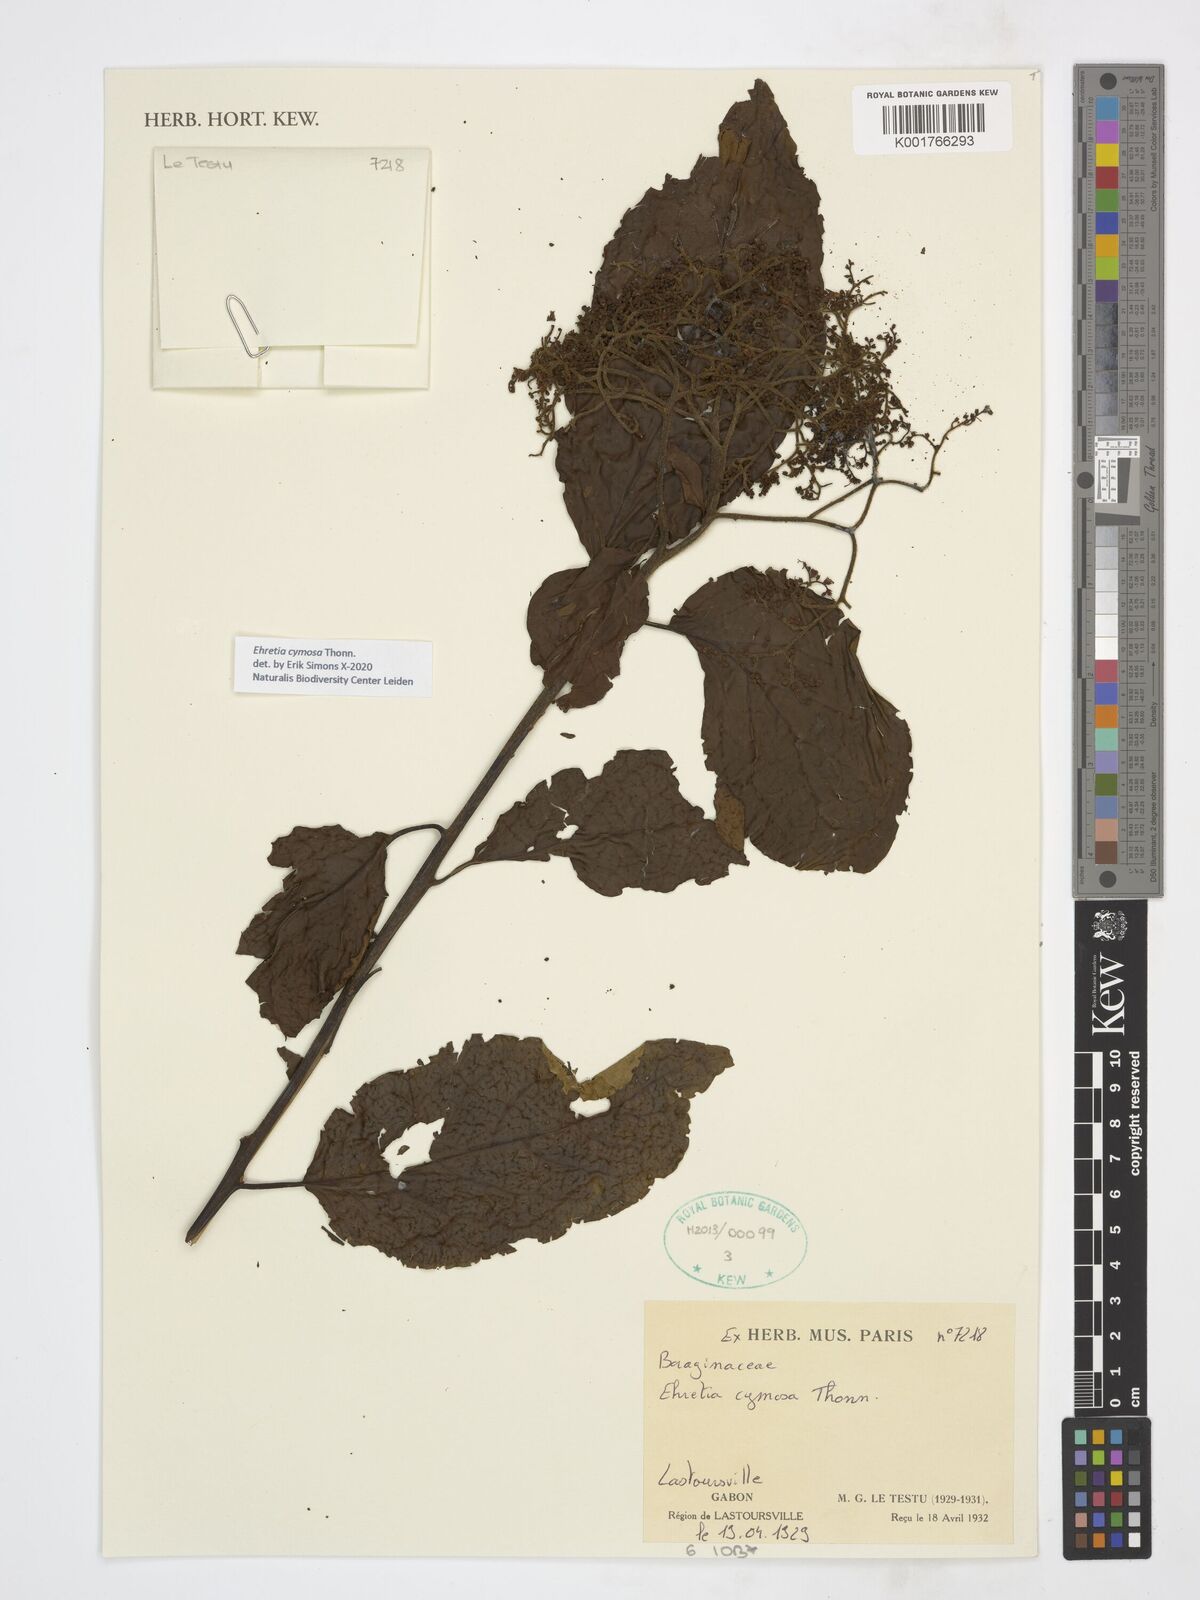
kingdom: Plantae
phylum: Tracheophyta
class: Magnoliopsida
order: Boraginales
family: Ehretiaceae
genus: Ehretia
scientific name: Ehretia cymosa
